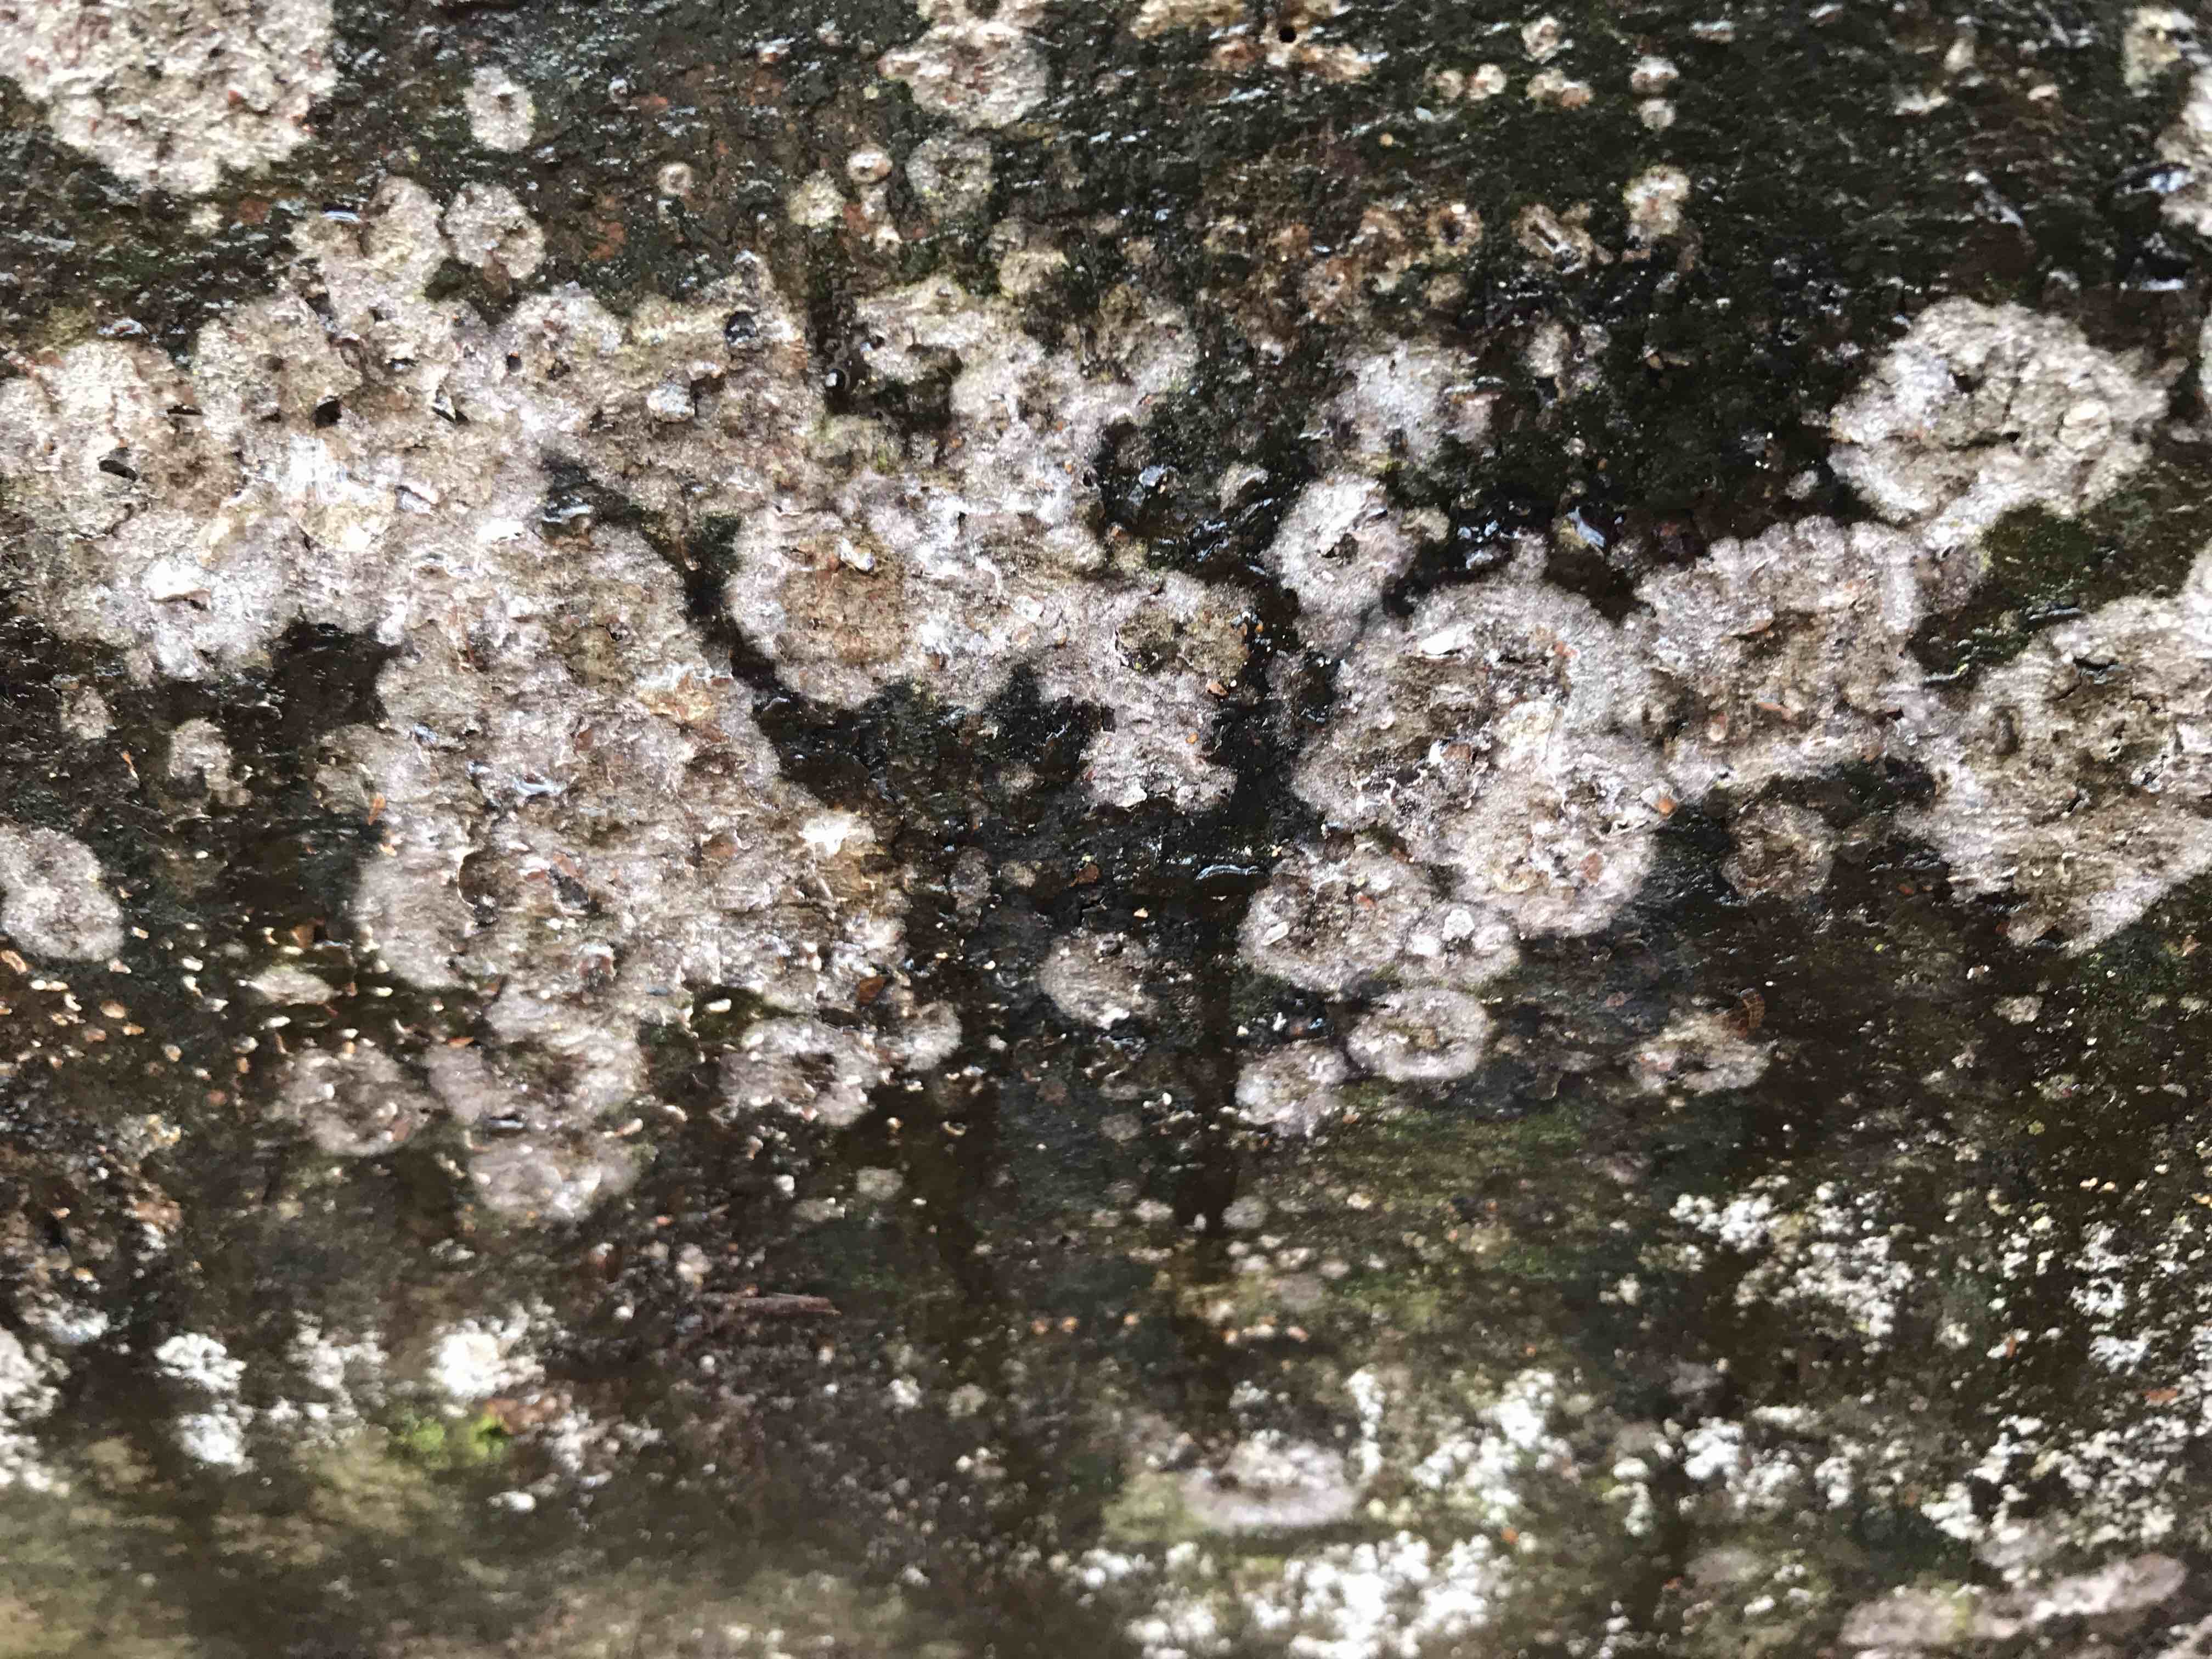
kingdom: Fungi
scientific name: Fungi
